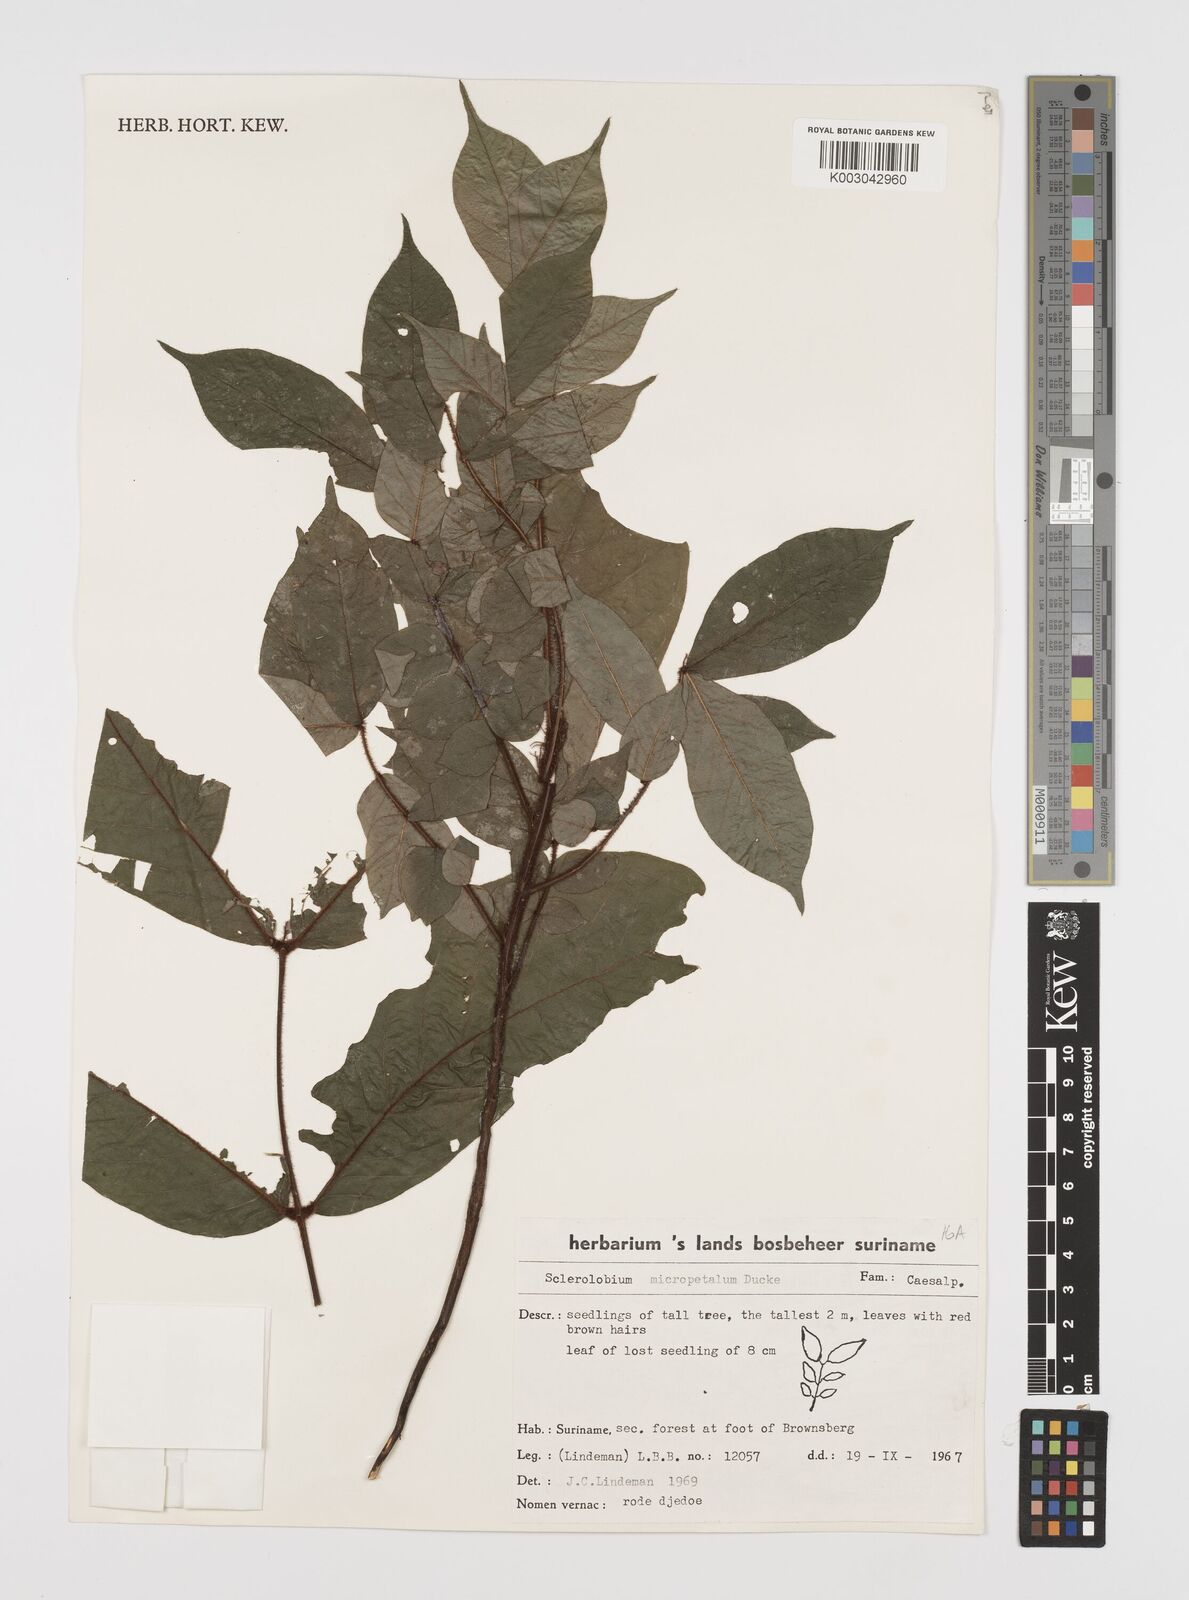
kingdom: Plantae
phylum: Tracheophyta
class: Magnoliopsida
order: Fabales
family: Fabaceae
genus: Tachigali
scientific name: Tachigali micropetala
